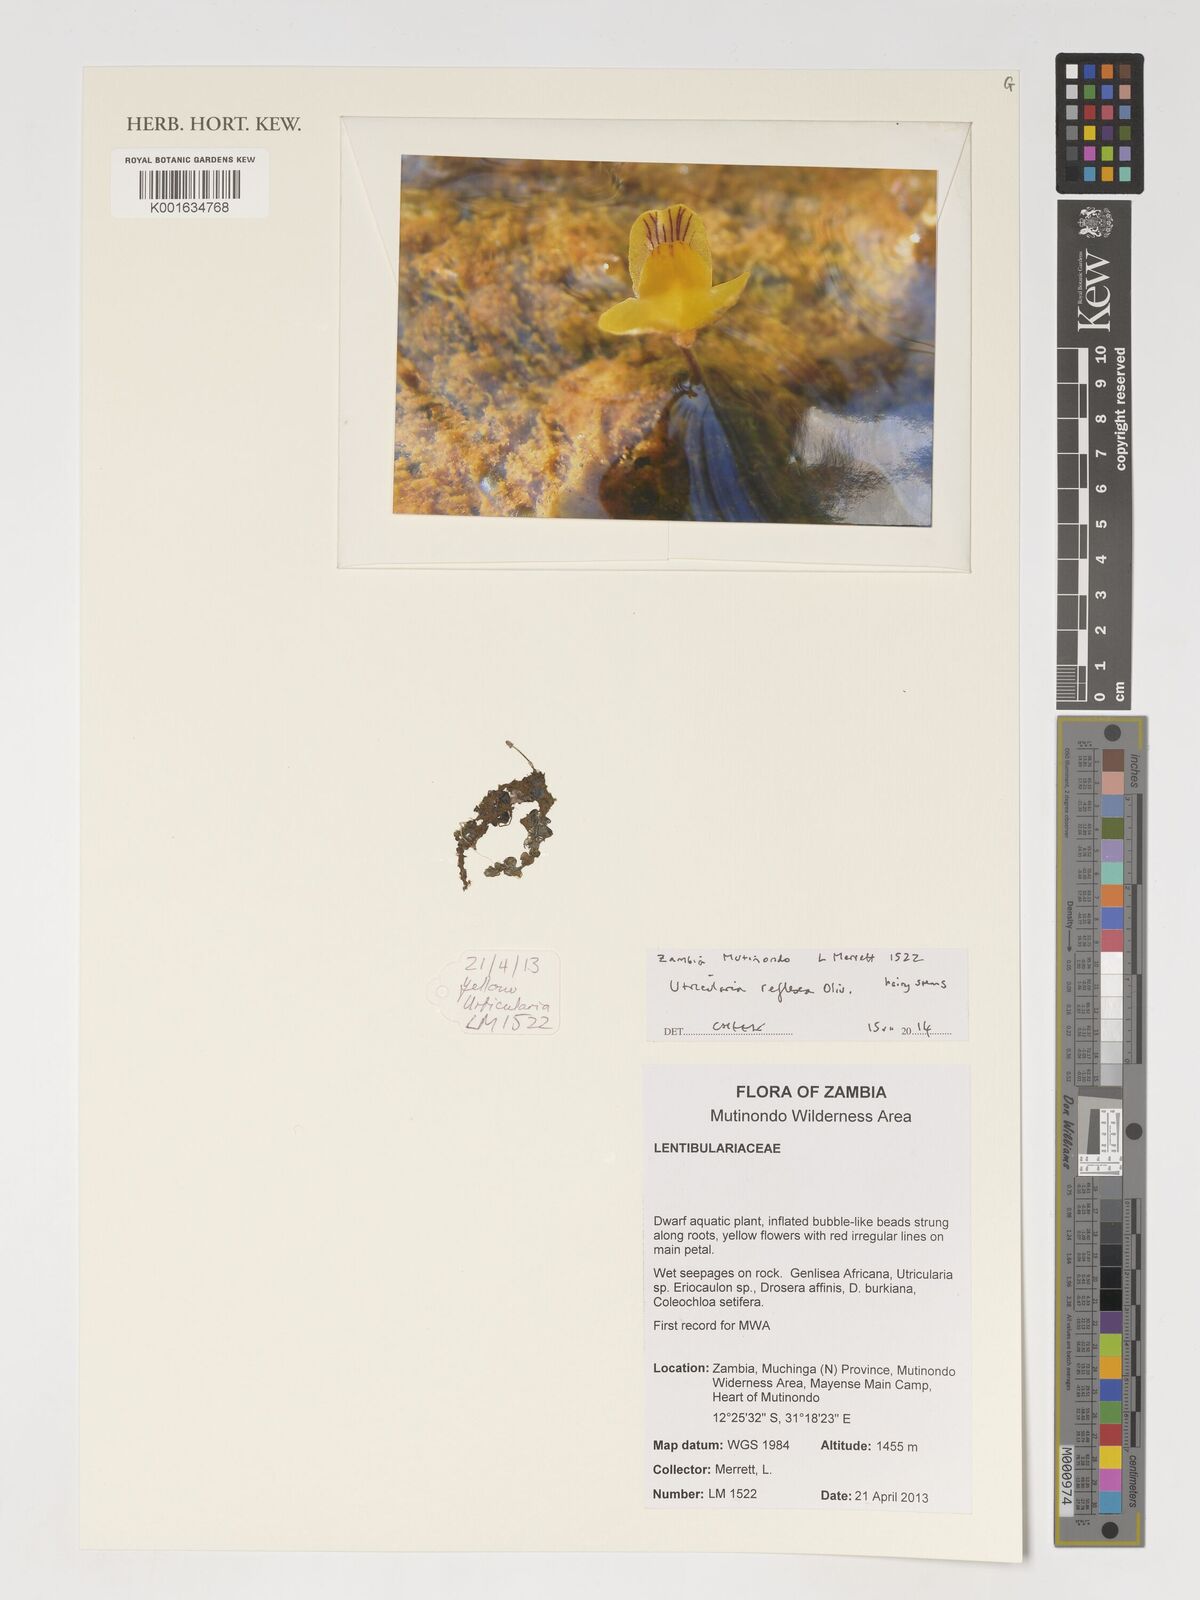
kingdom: Plantae
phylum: Tracheophyta
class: Magnoliopsida
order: Lamiales
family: Lentibulariaceae
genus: Utricularia
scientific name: Utricularia reflexa
